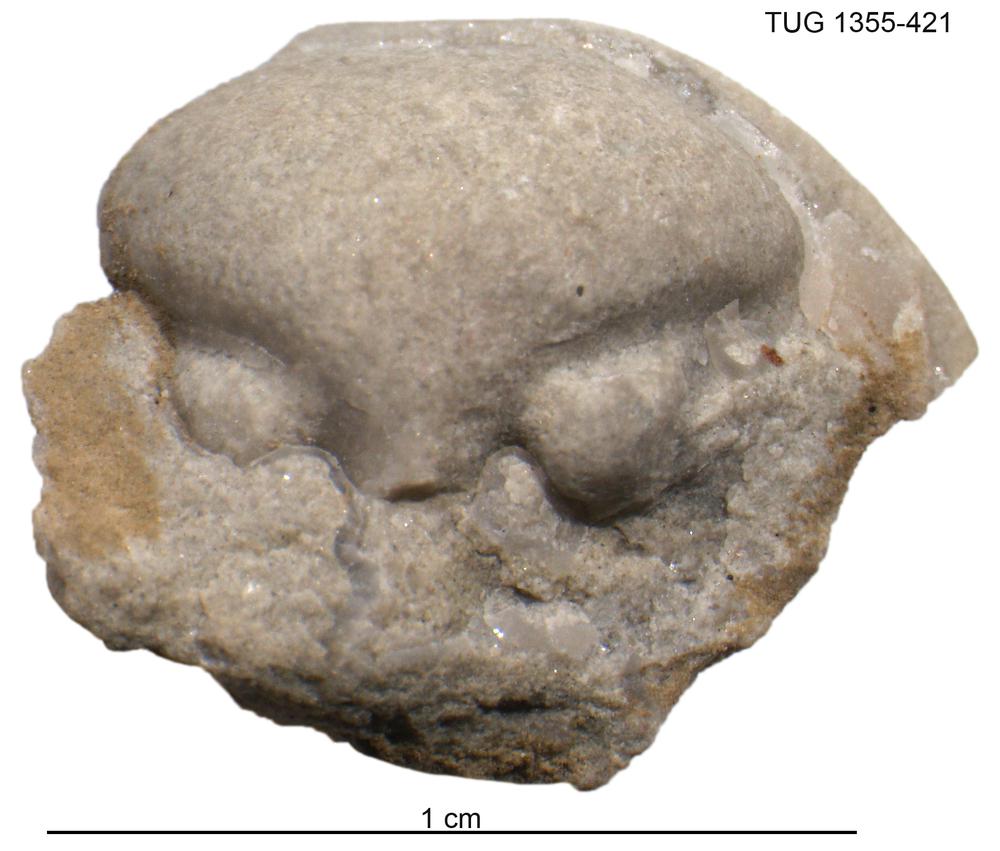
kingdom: Animalia
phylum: Arthropoda
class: Trilobita
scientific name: Trilobita
